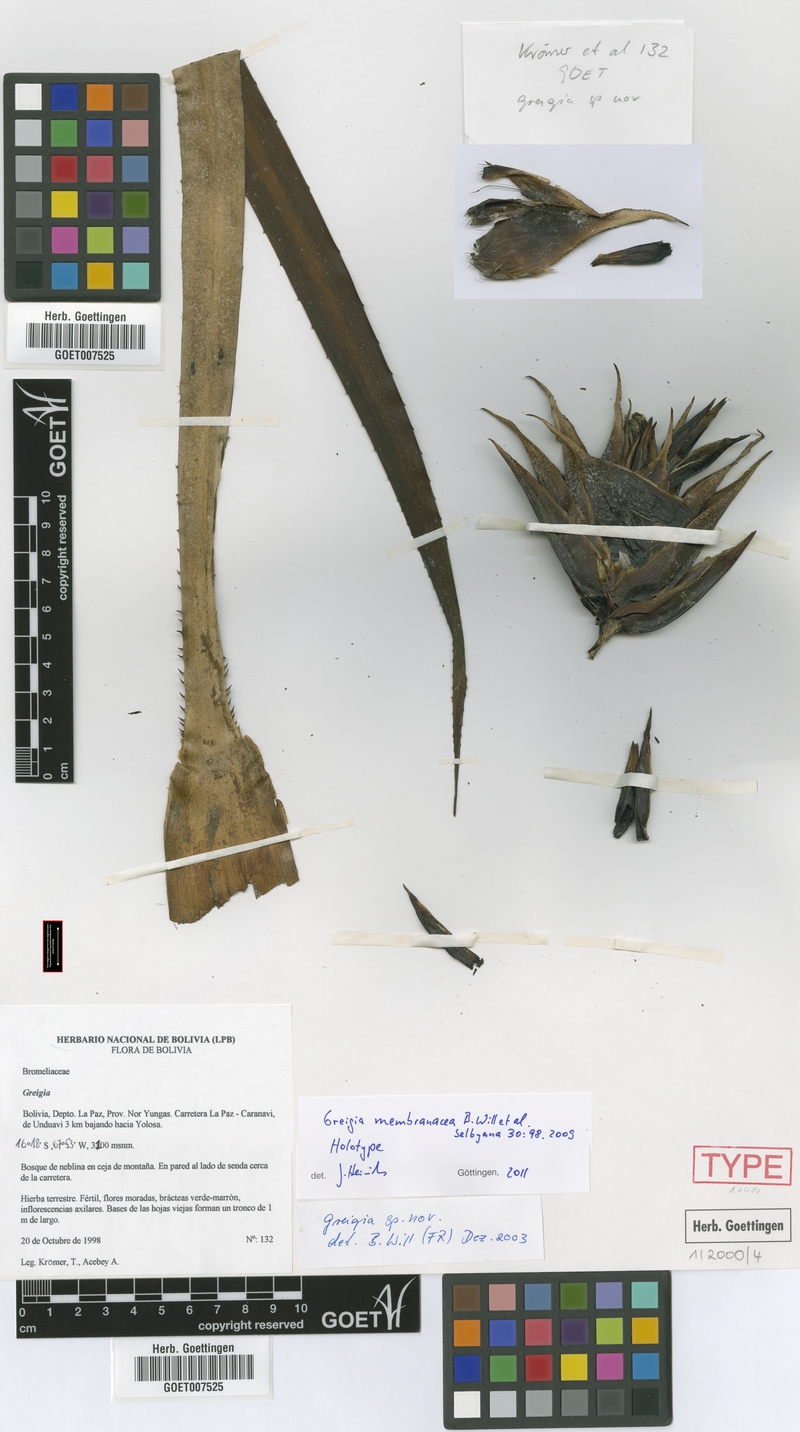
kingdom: Plantae
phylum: Tracheophyta
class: Liliopsida
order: Poales
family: Bromeliaceae
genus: Greigia
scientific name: Greigia membranacea
